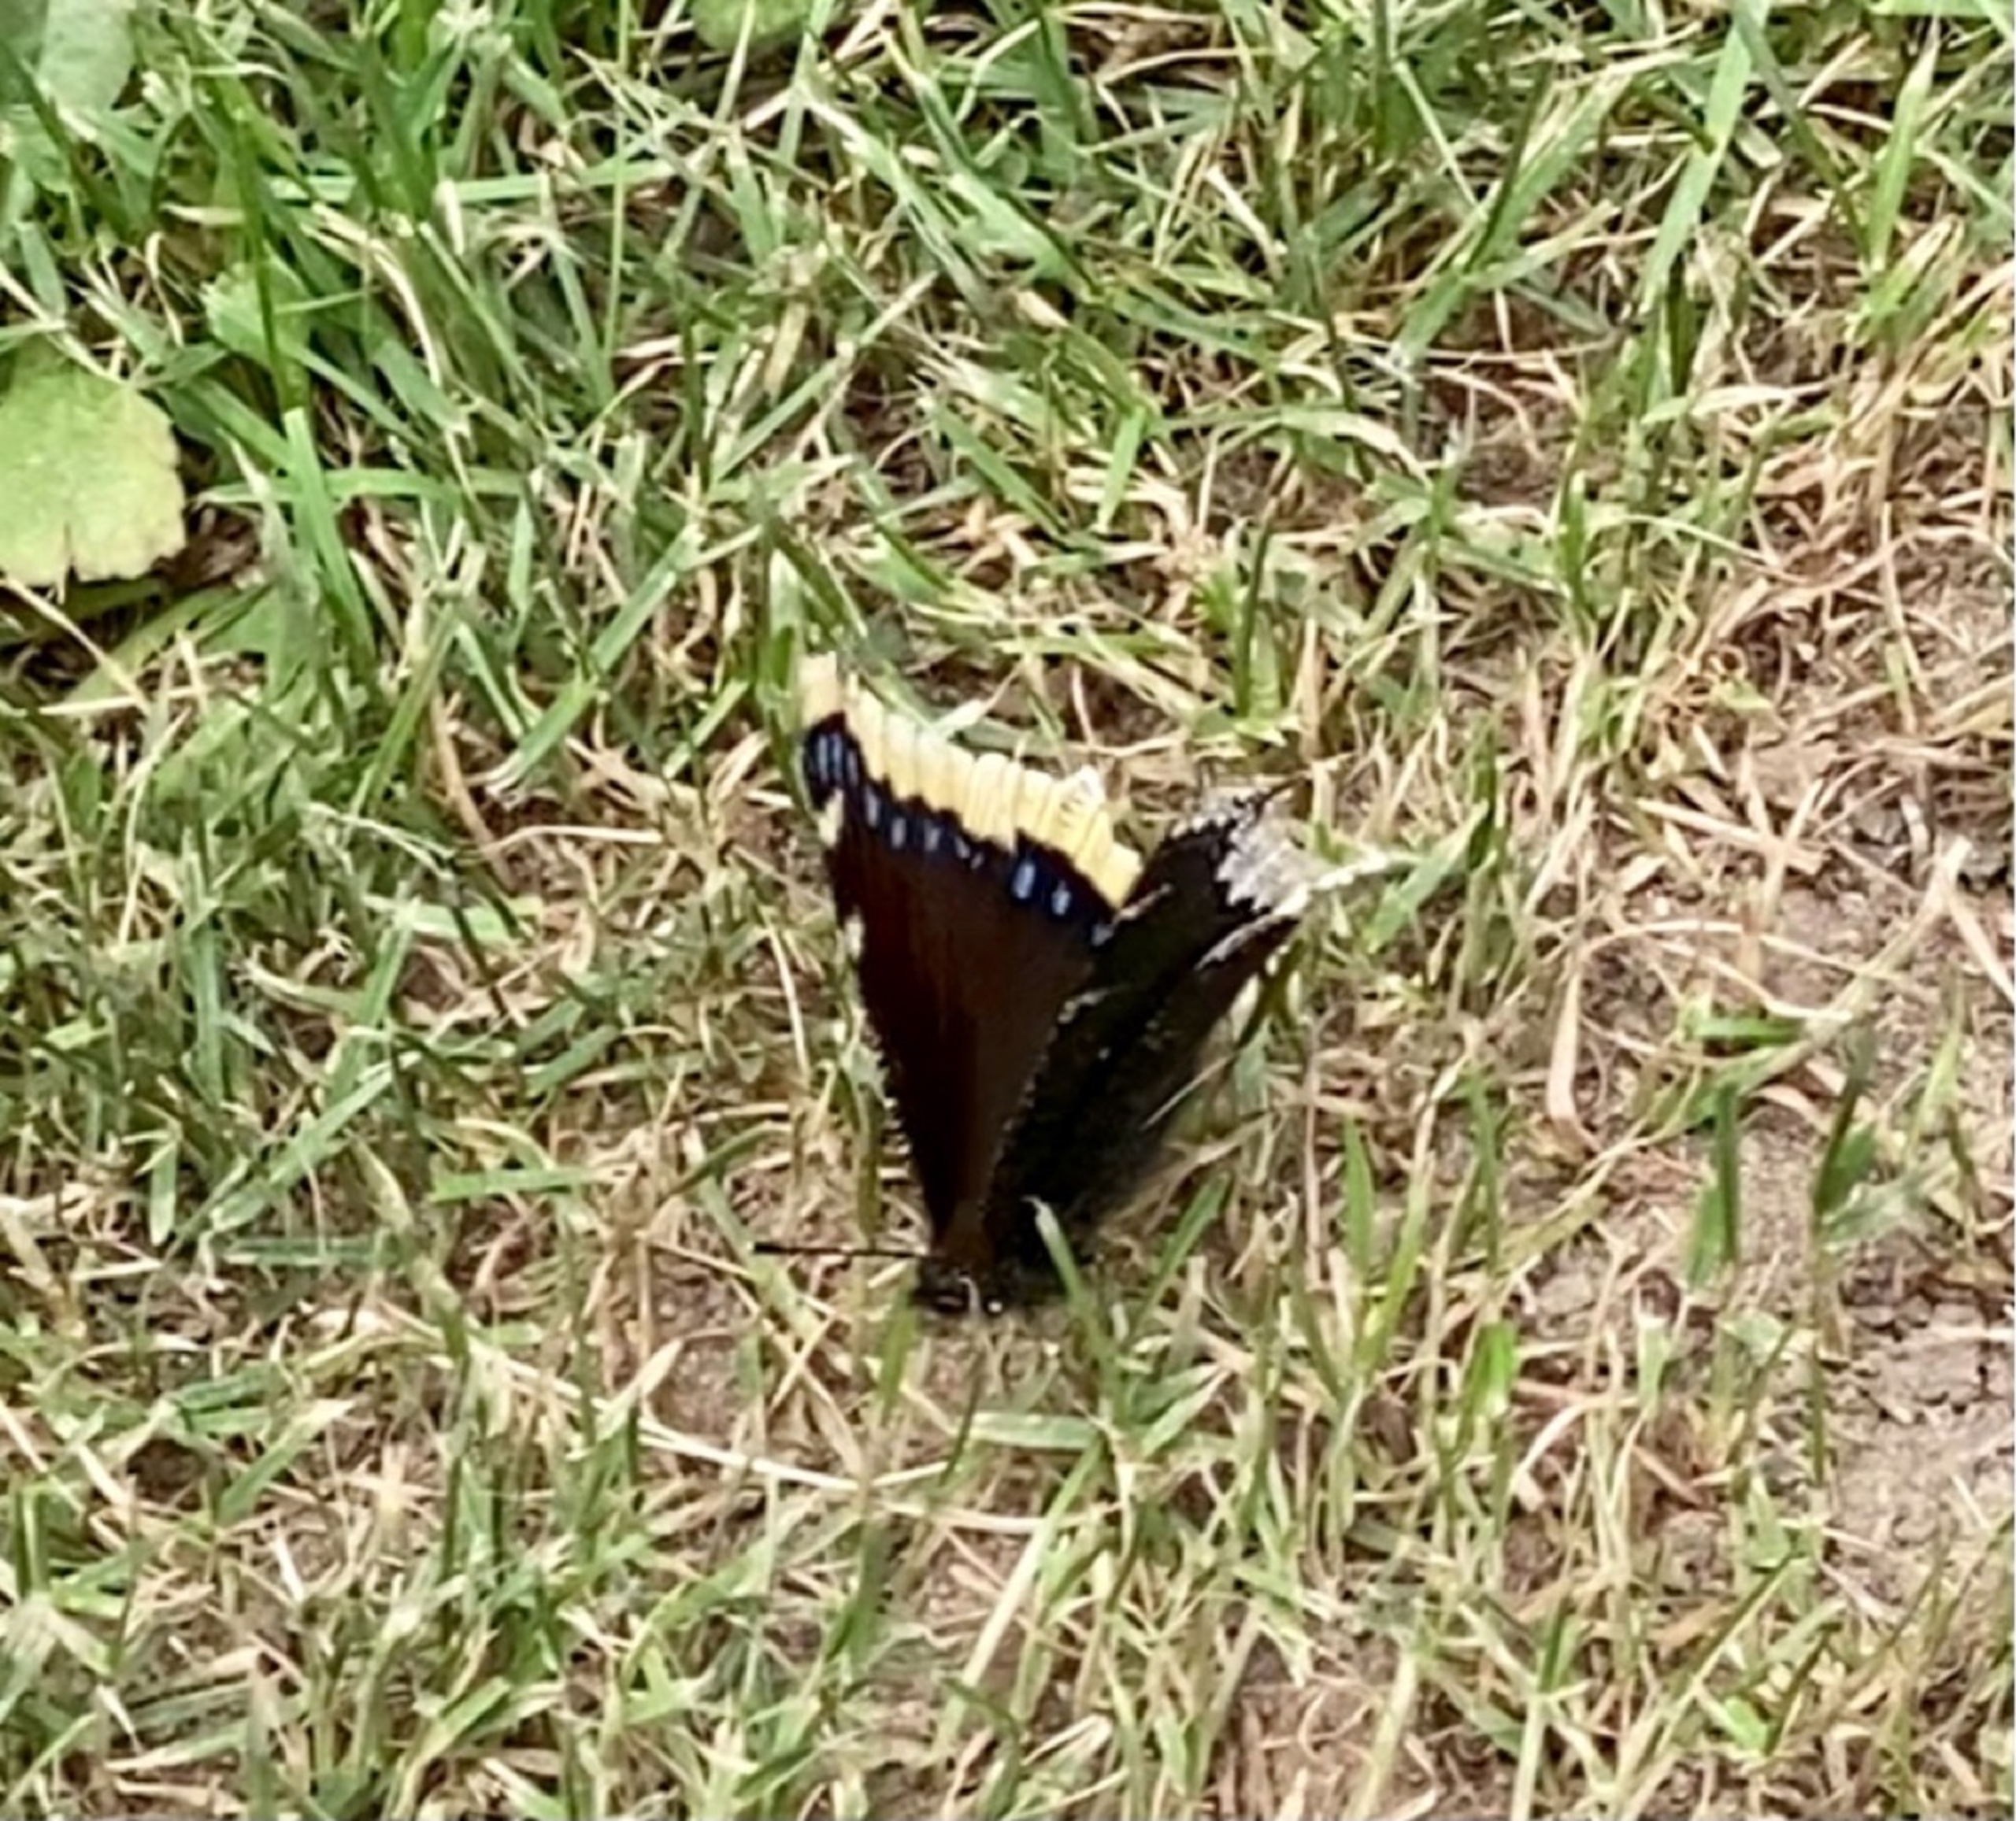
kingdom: Animalia
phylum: Arthropoda
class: Insecta
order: Lepidoptera
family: Nymphalidae
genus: Nymphalis
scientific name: Nymphalis antiopa
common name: Sørgekåbe
